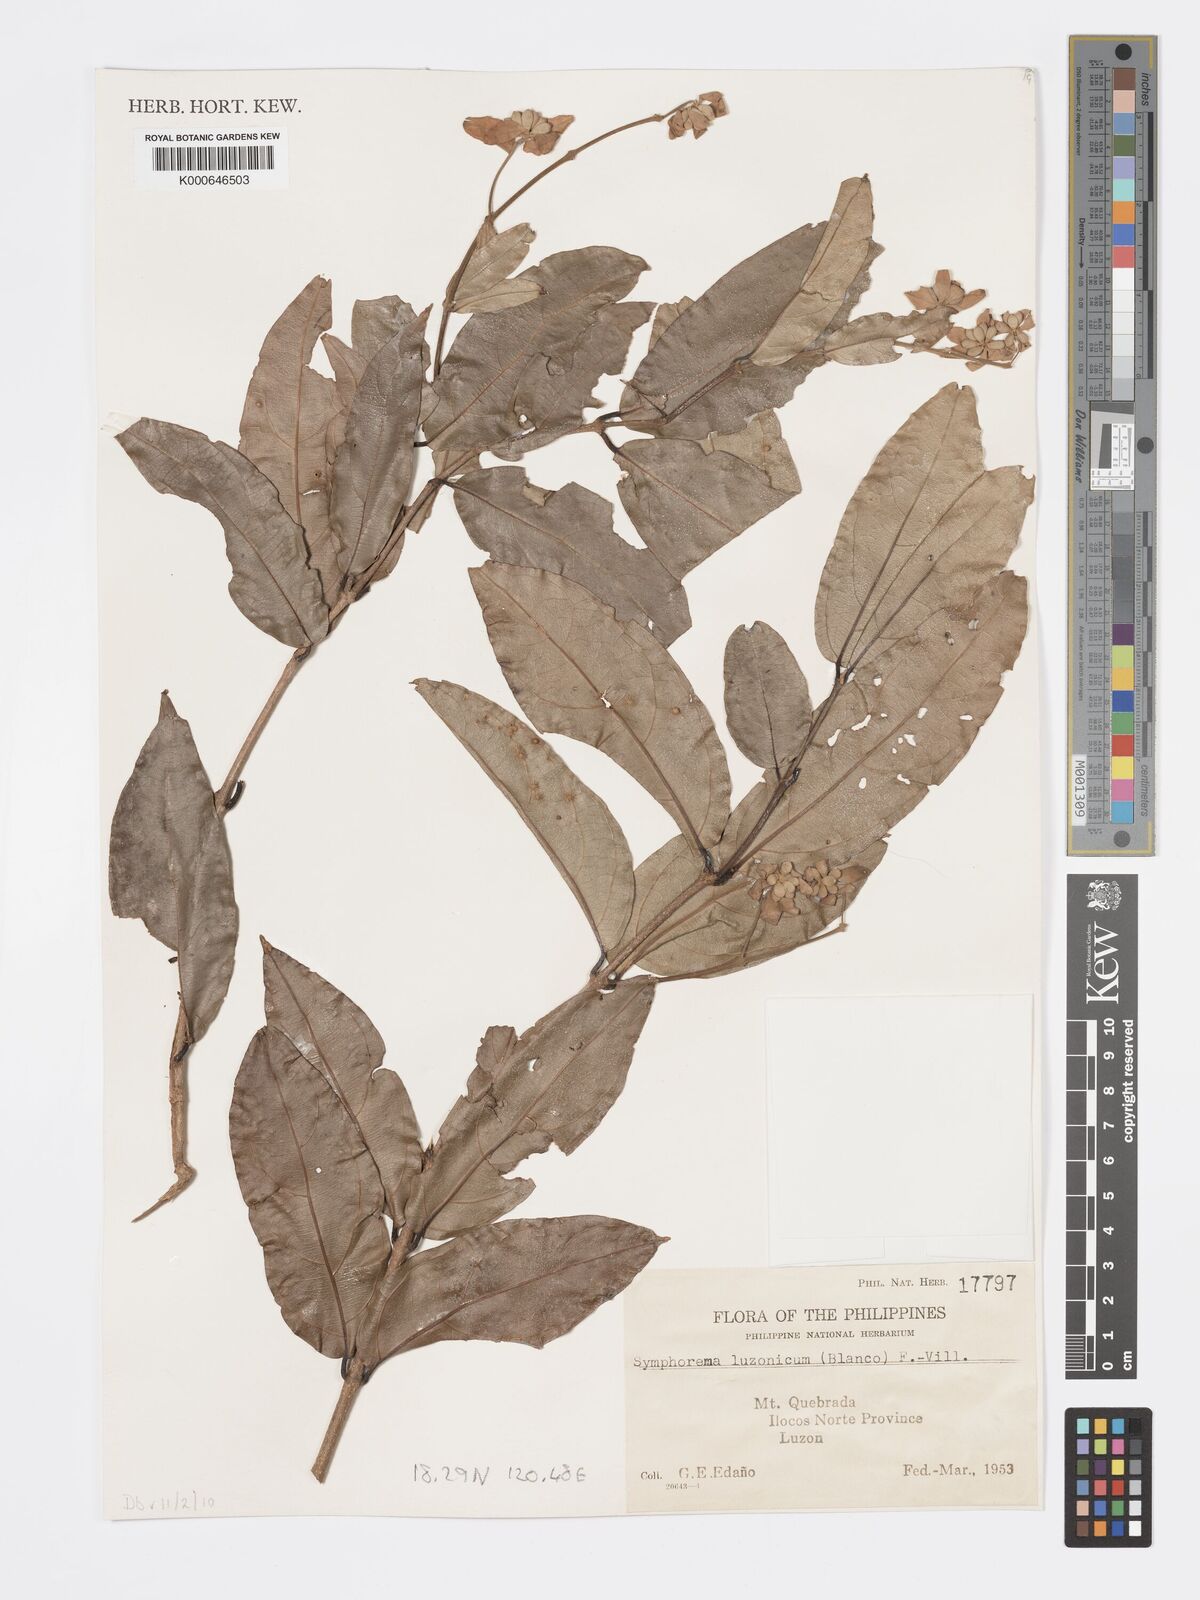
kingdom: Plantae
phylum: Tracheophyta
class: Magnoliopsida
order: Lamiales
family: Lamiaceae
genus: Symphorema
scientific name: Symphorema luzonicum
